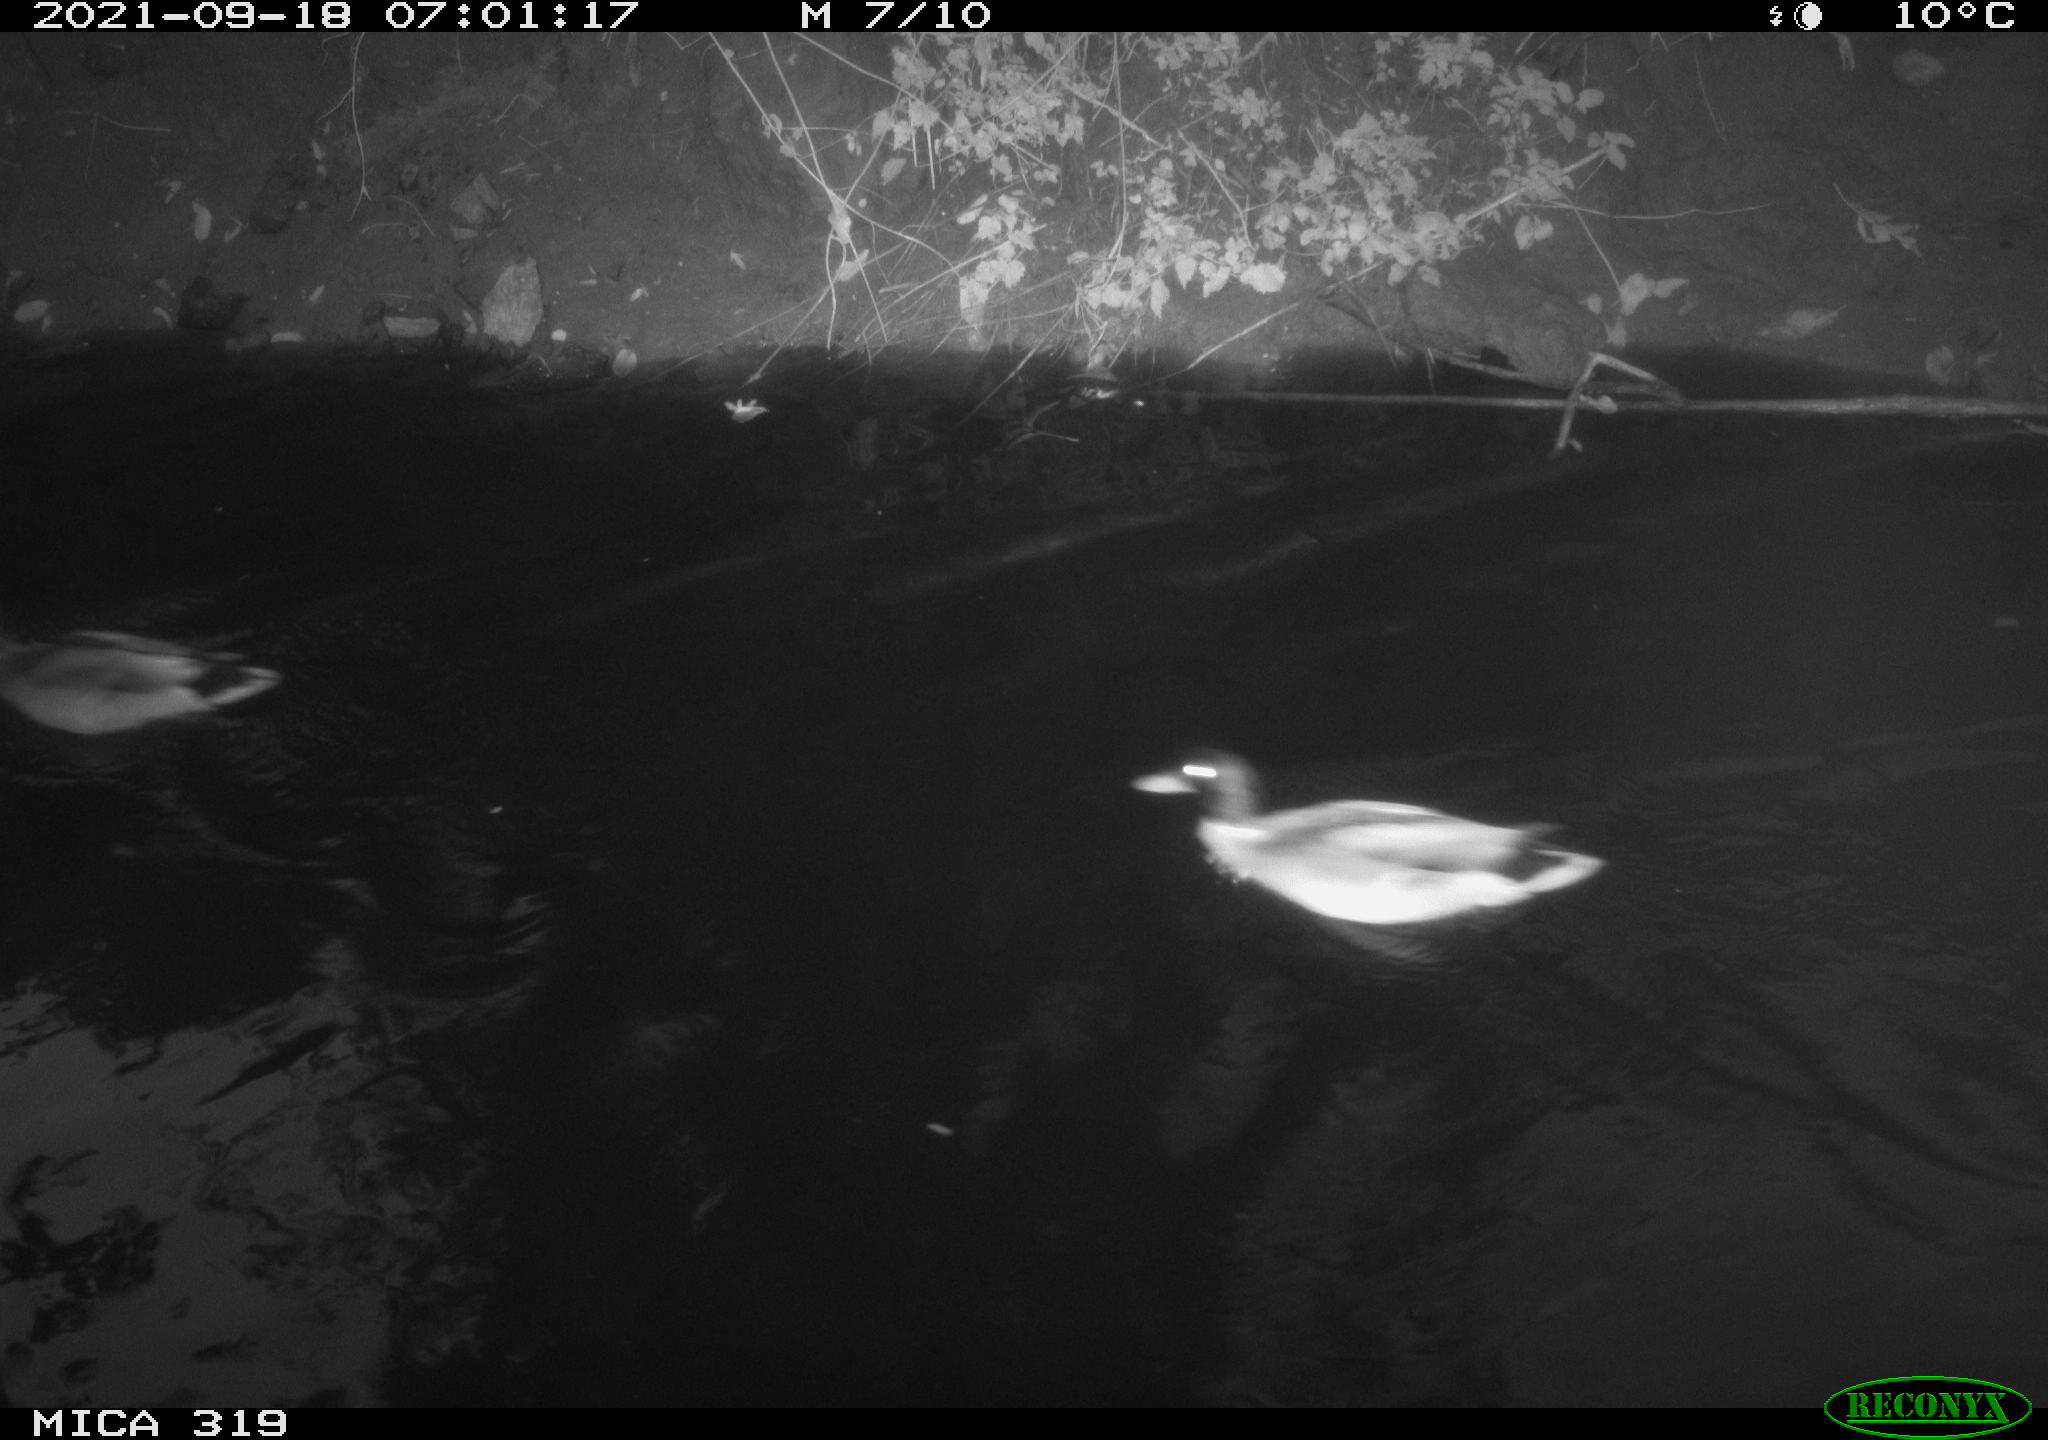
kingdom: Animalia
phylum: Chordata
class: Aves
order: Anseriformes
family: Anatidae
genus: Anas
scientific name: Anas platyrhynchos
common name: Mallard
